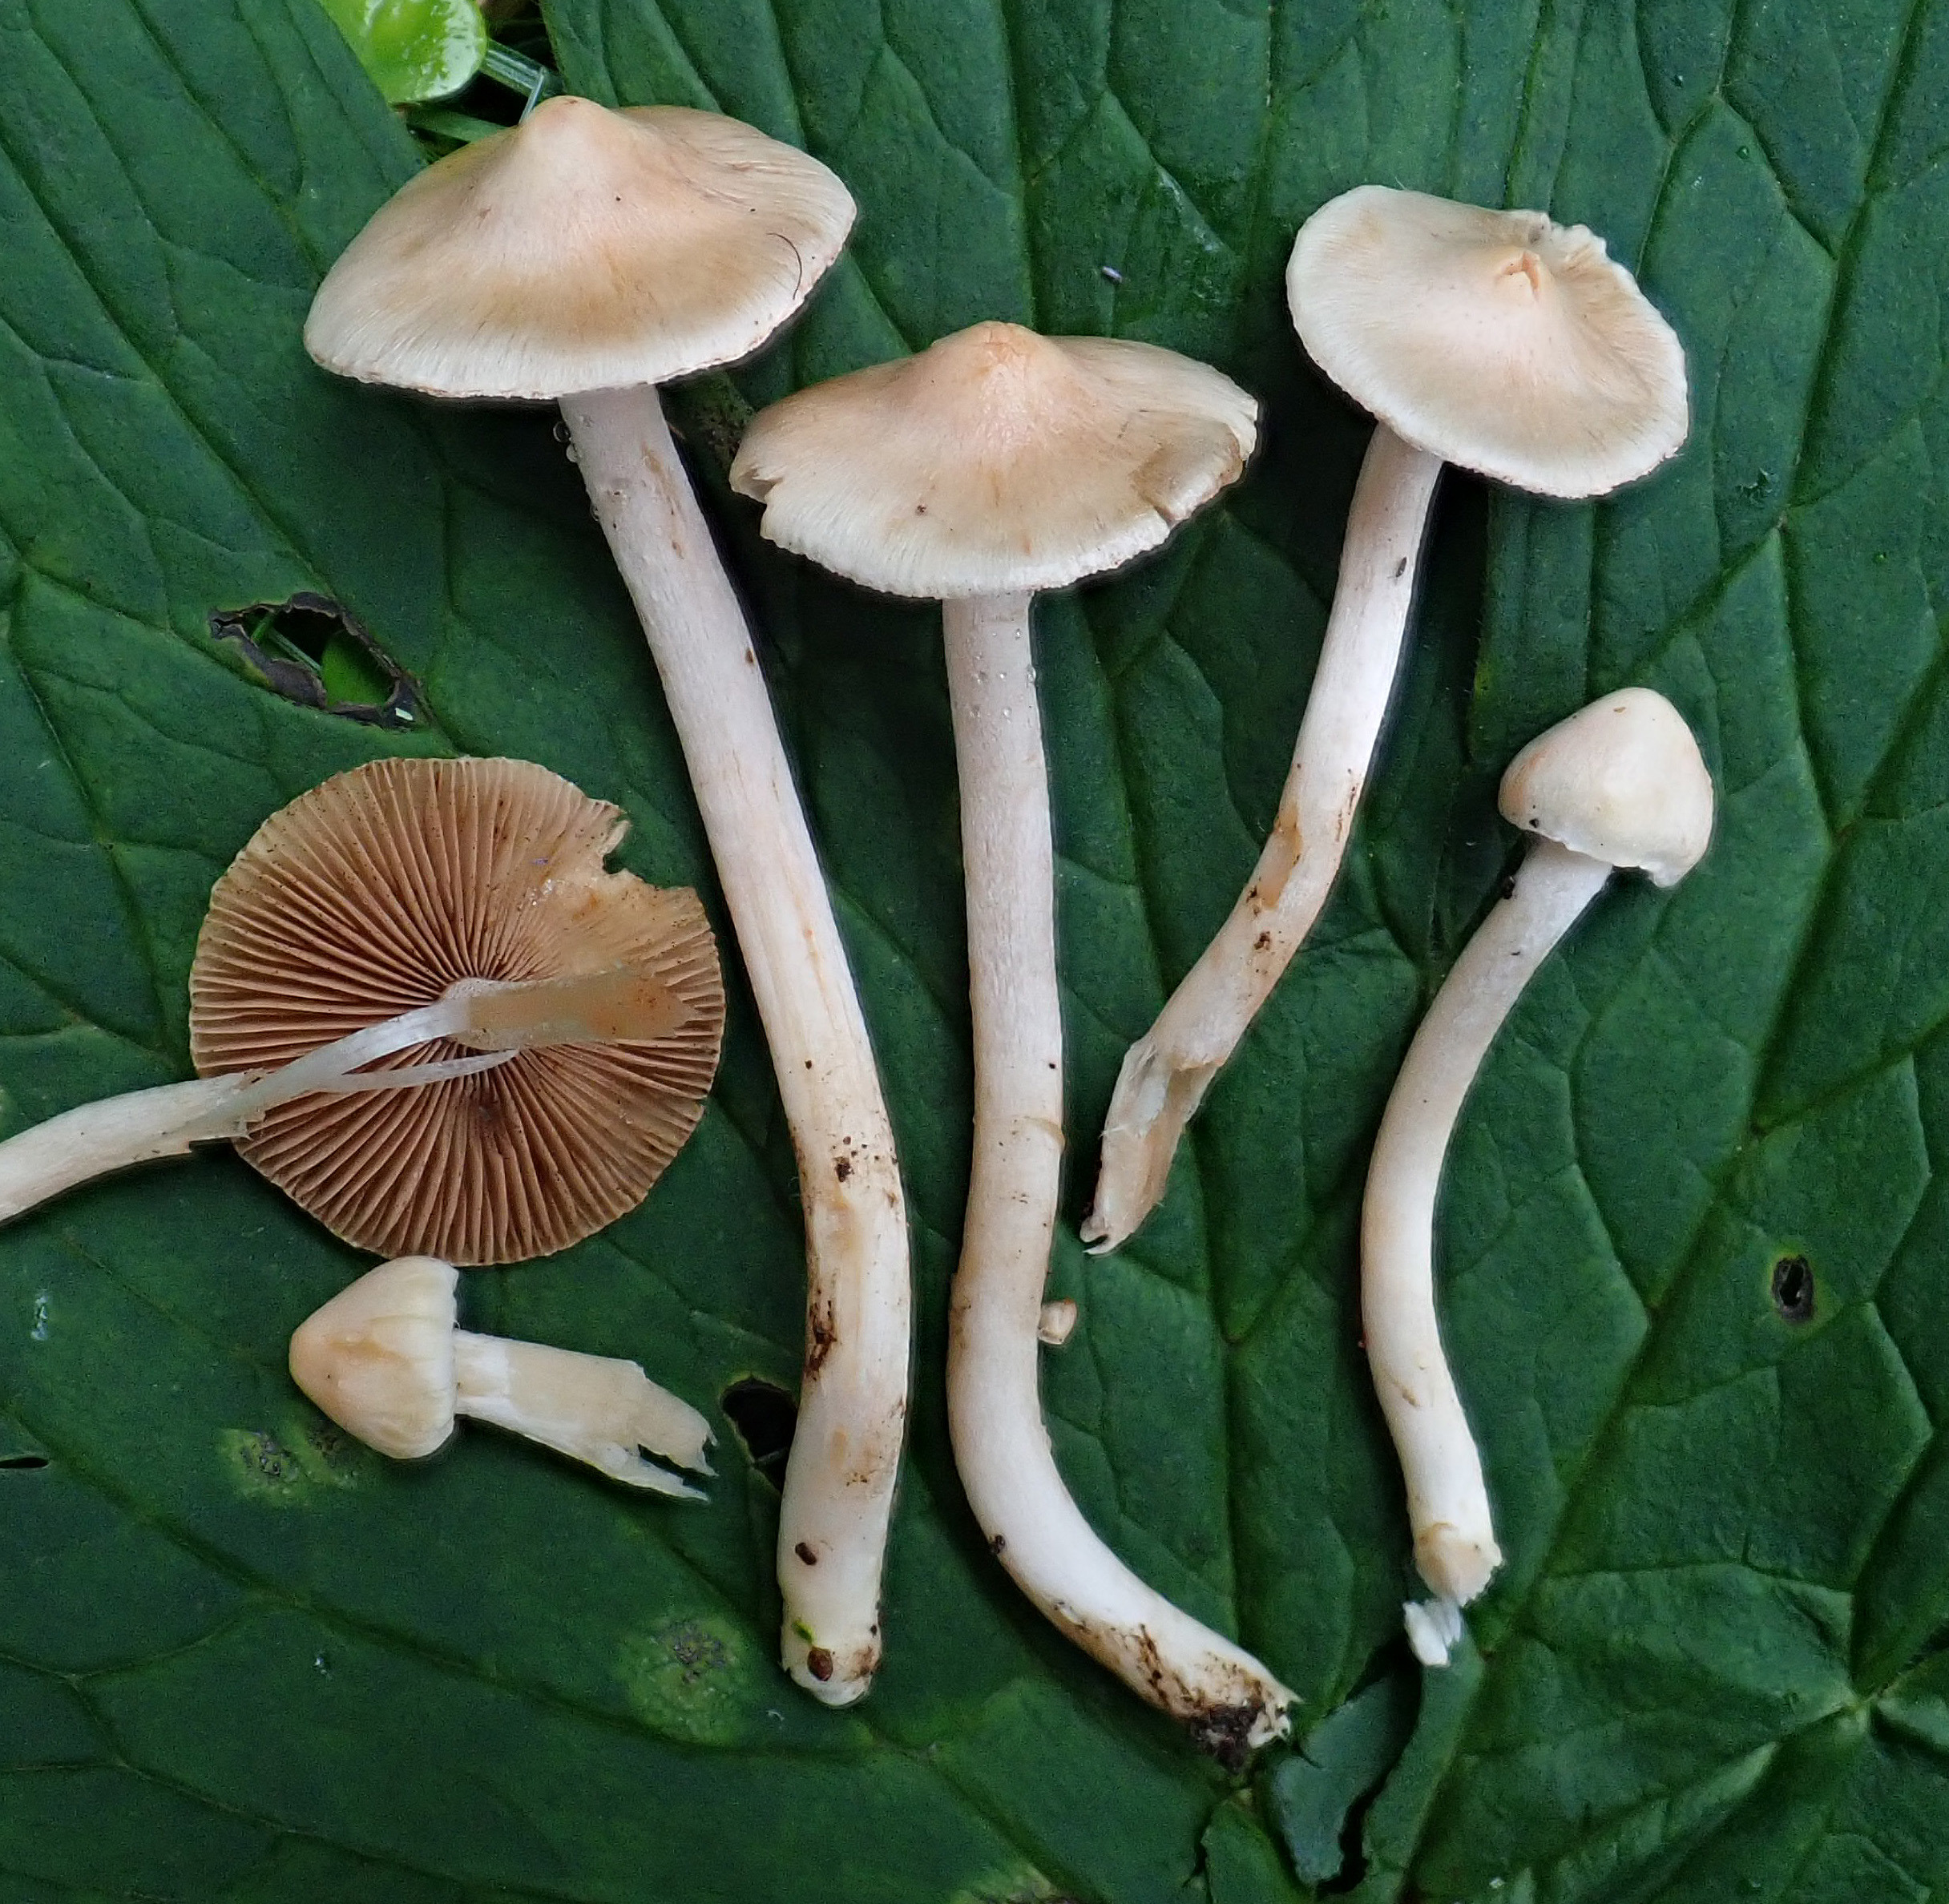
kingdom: Fungi
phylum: Basidiomycota
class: Agaricomycetes
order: Agaricales
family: Inocybaceae
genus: Inocybe
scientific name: Inocybe geophylla
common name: White fibrecap
